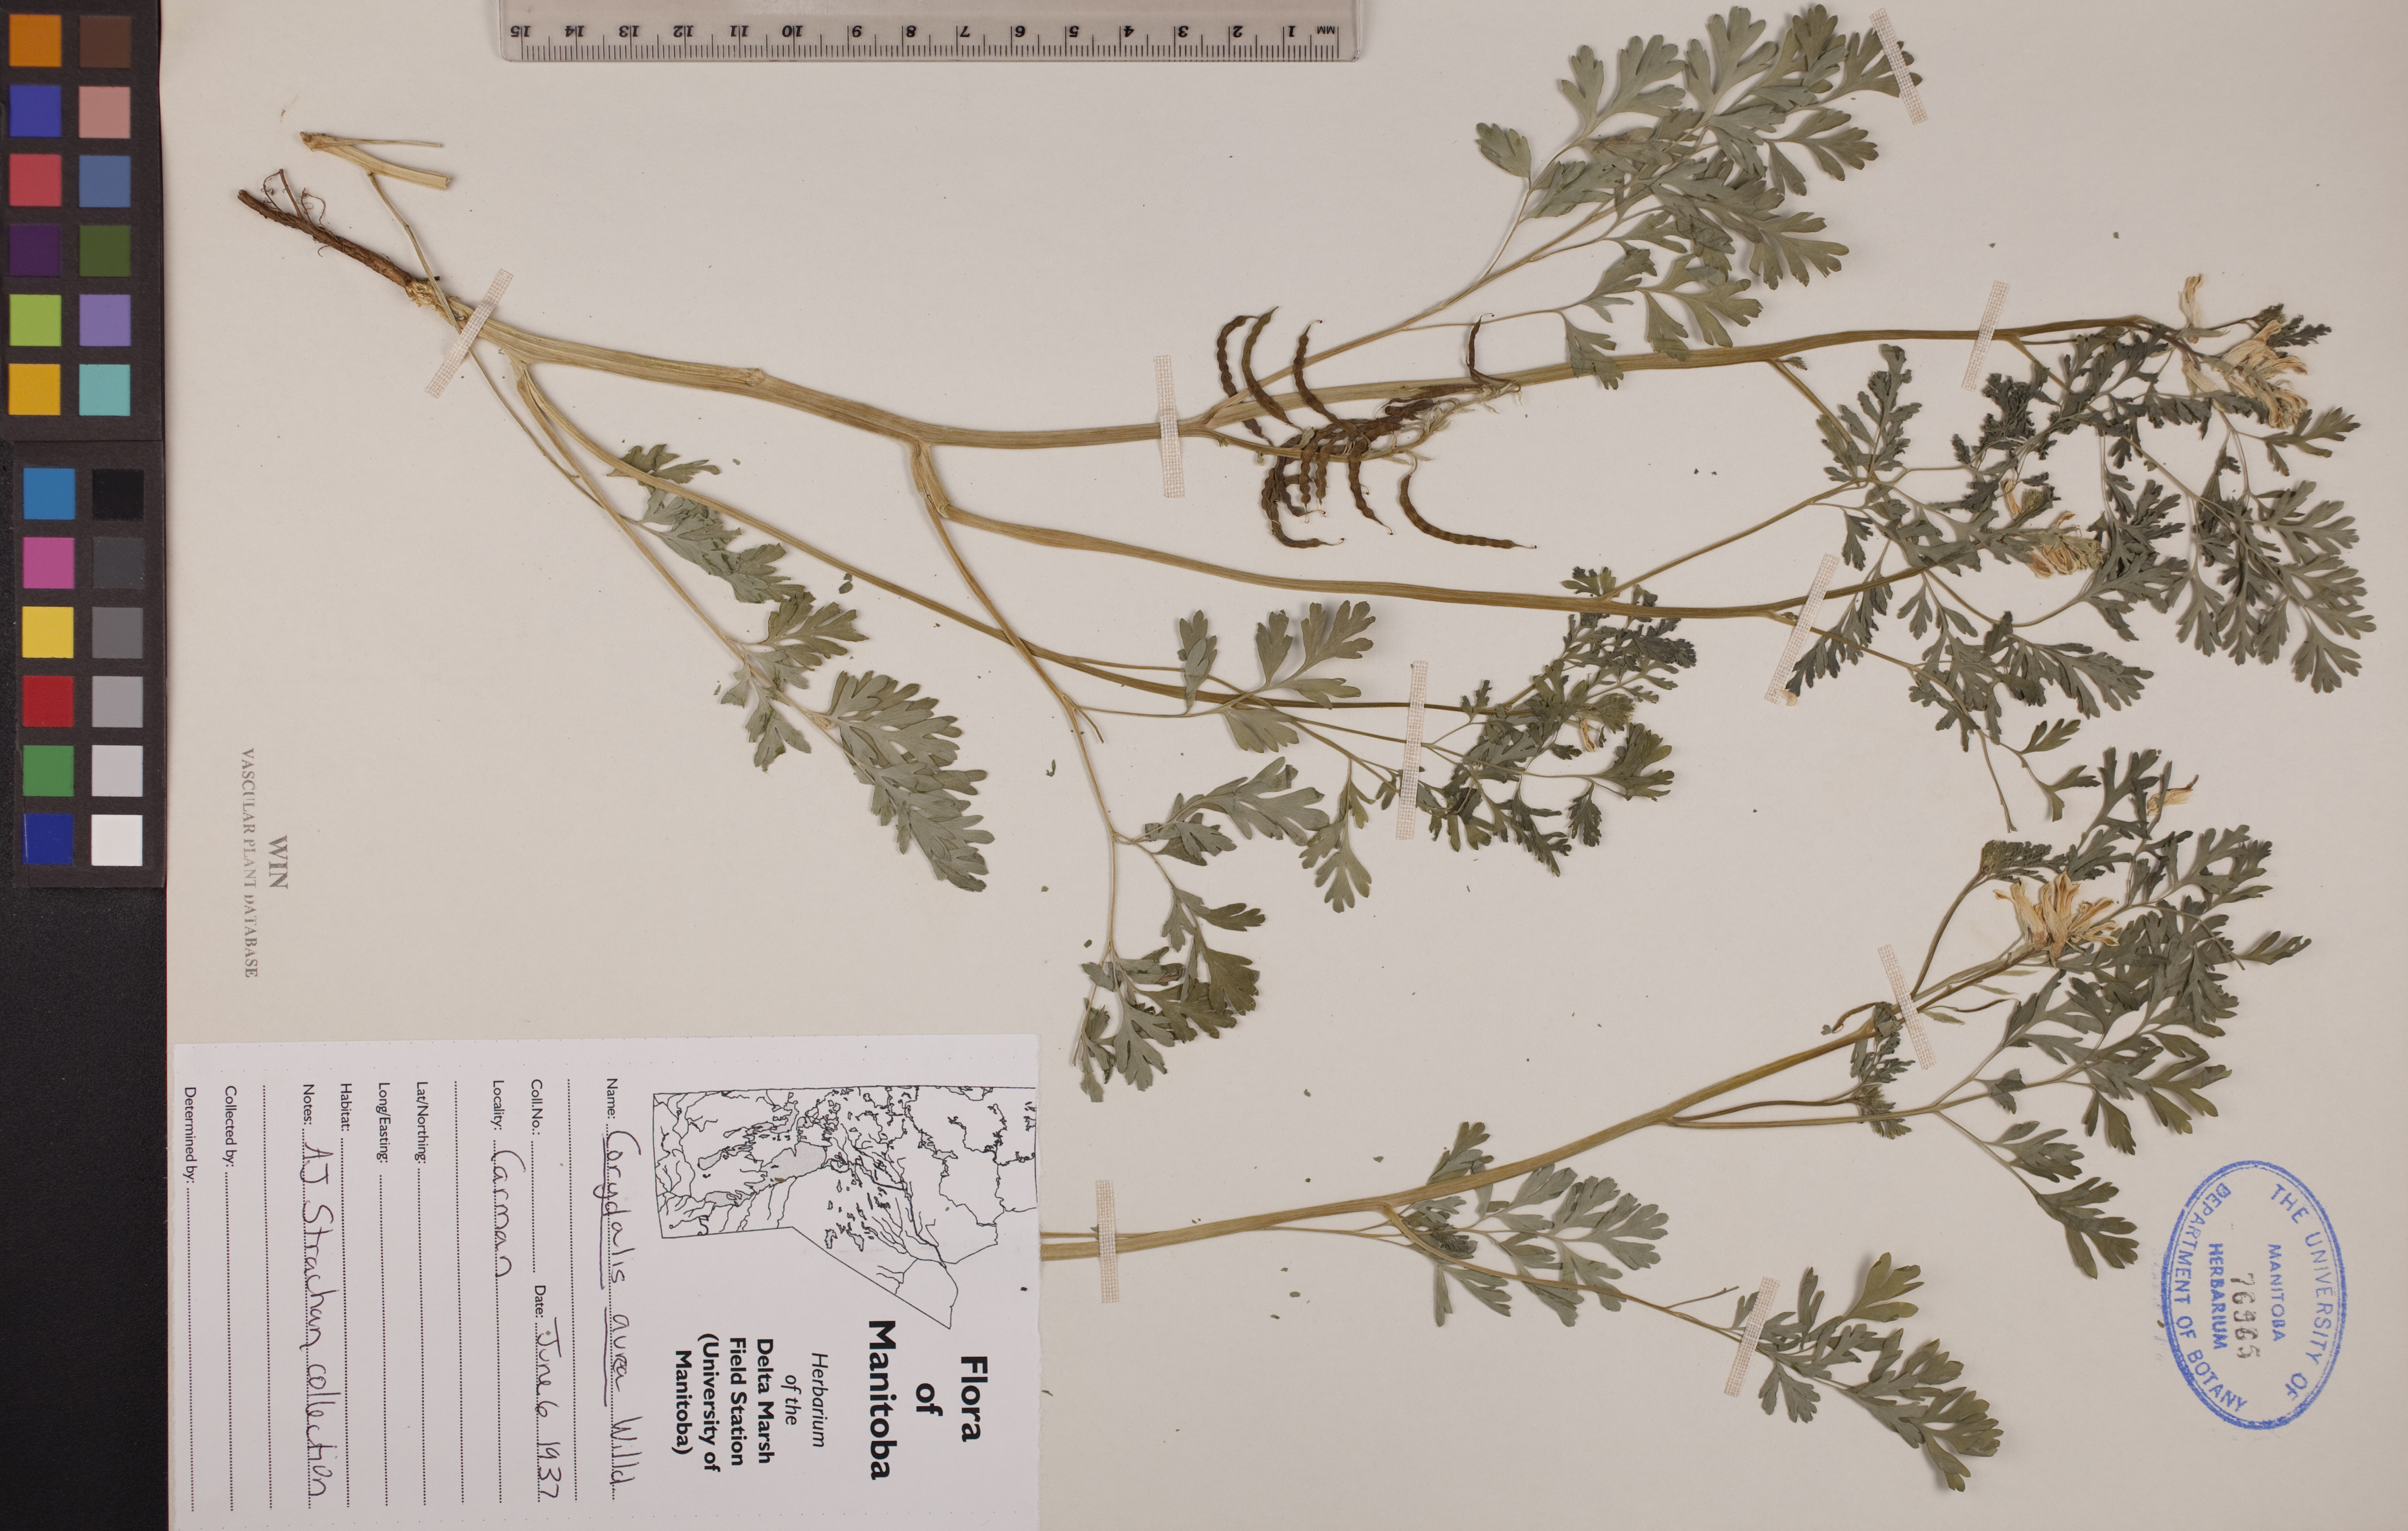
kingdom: Plantae
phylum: Tracheophyta
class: Magnoliopsida
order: Ranunculales
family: Papaveraceae
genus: Corydalis
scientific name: Corydalis aurea
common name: Golden corydalis
